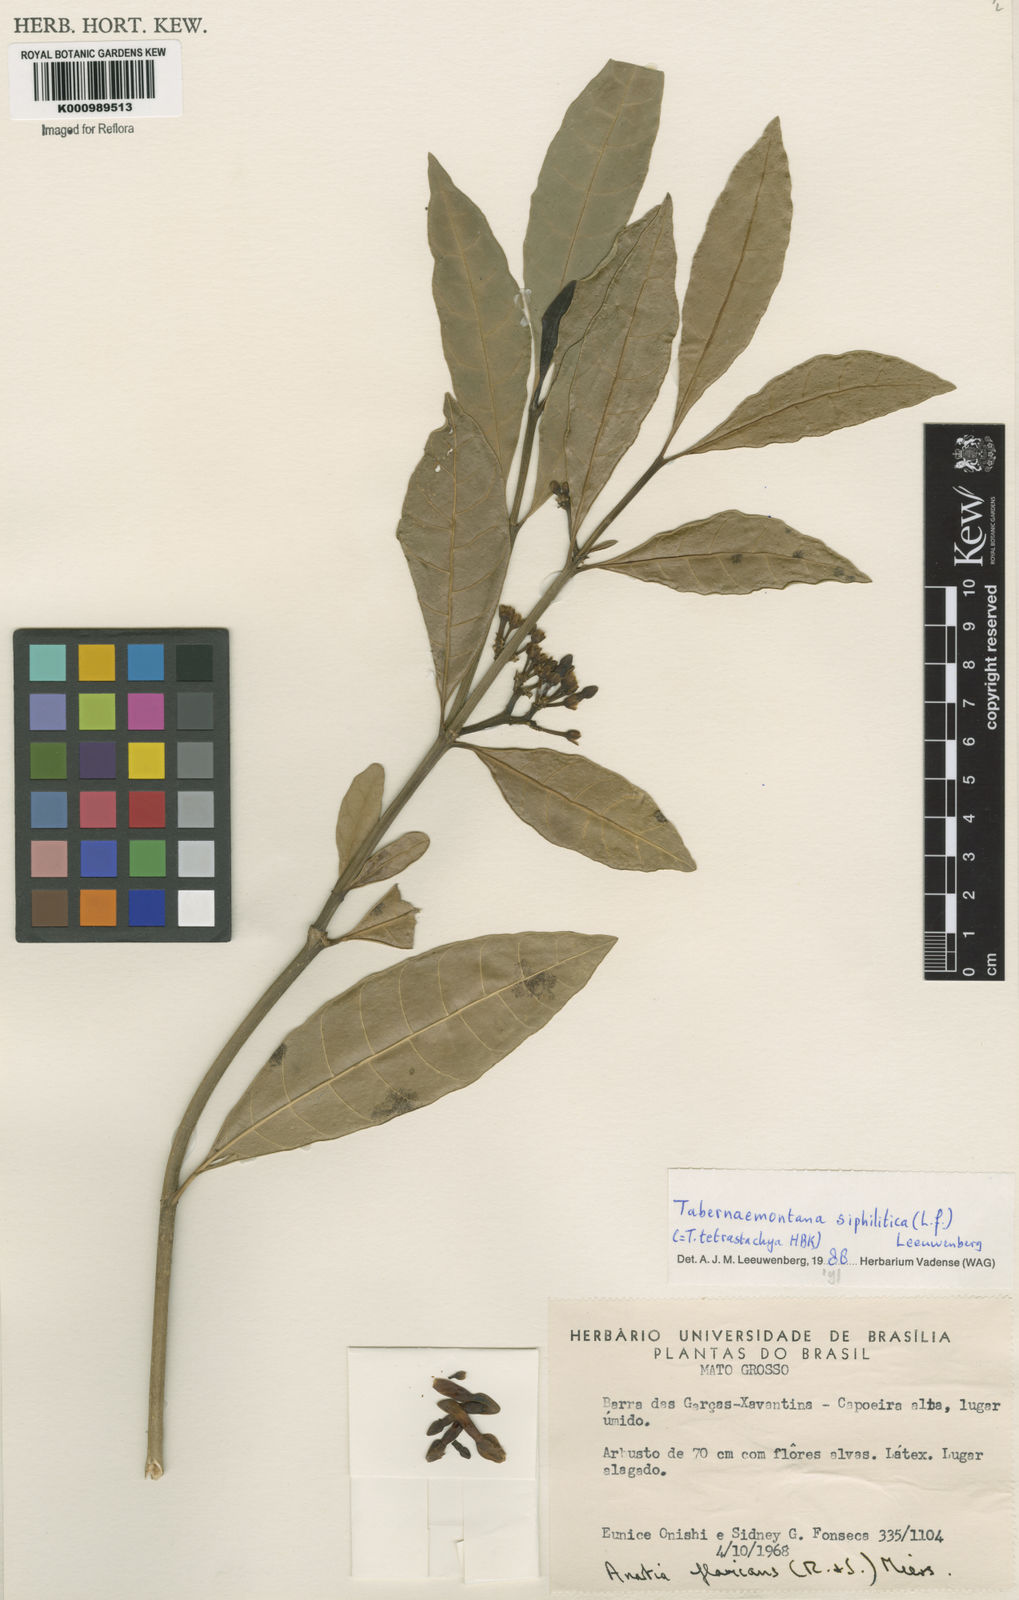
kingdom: Plantae
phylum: Tracheophyta
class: Magnoliopsida
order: Gentianales
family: Apocynaceae
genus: Tabernaemontana
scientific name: Tabernaemontana siphilitica
